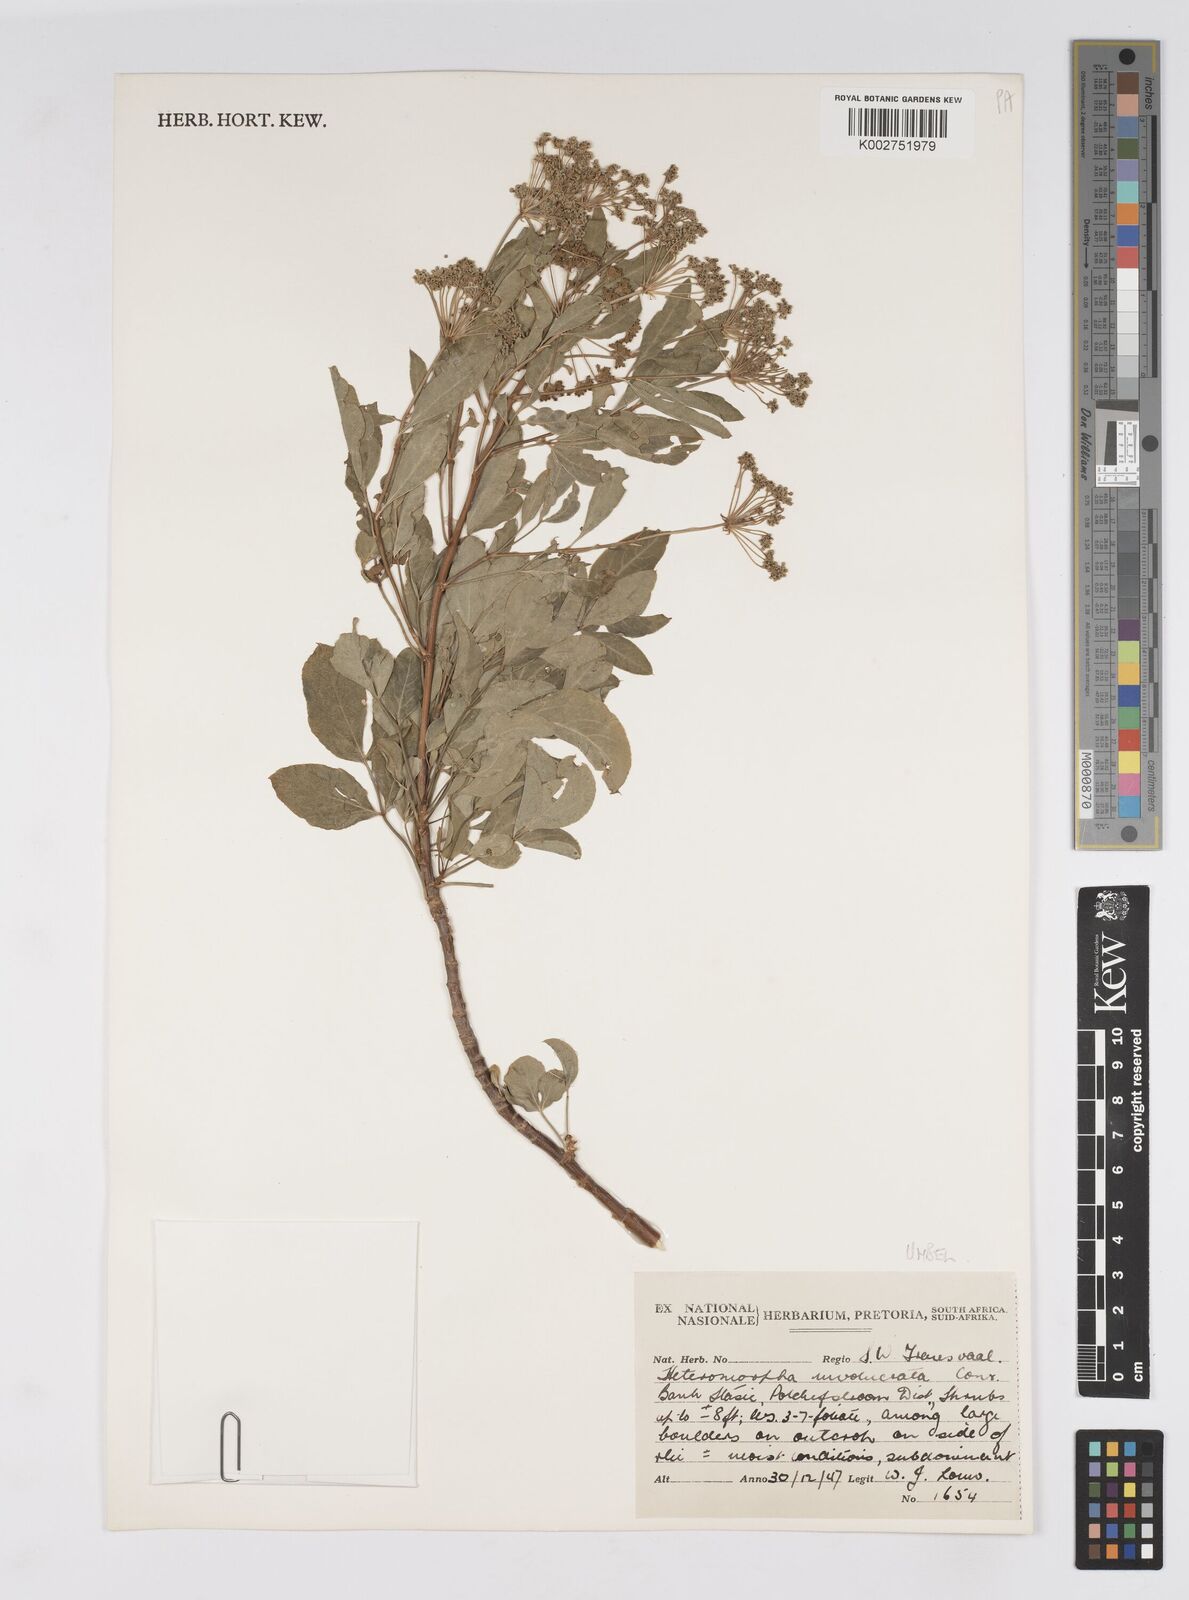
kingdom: Plantae
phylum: Tracheophyta
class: Magnoliopsida
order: Apiales
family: Apiaceae
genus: Heteromorpha
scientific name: Heteromorpha involucrata
